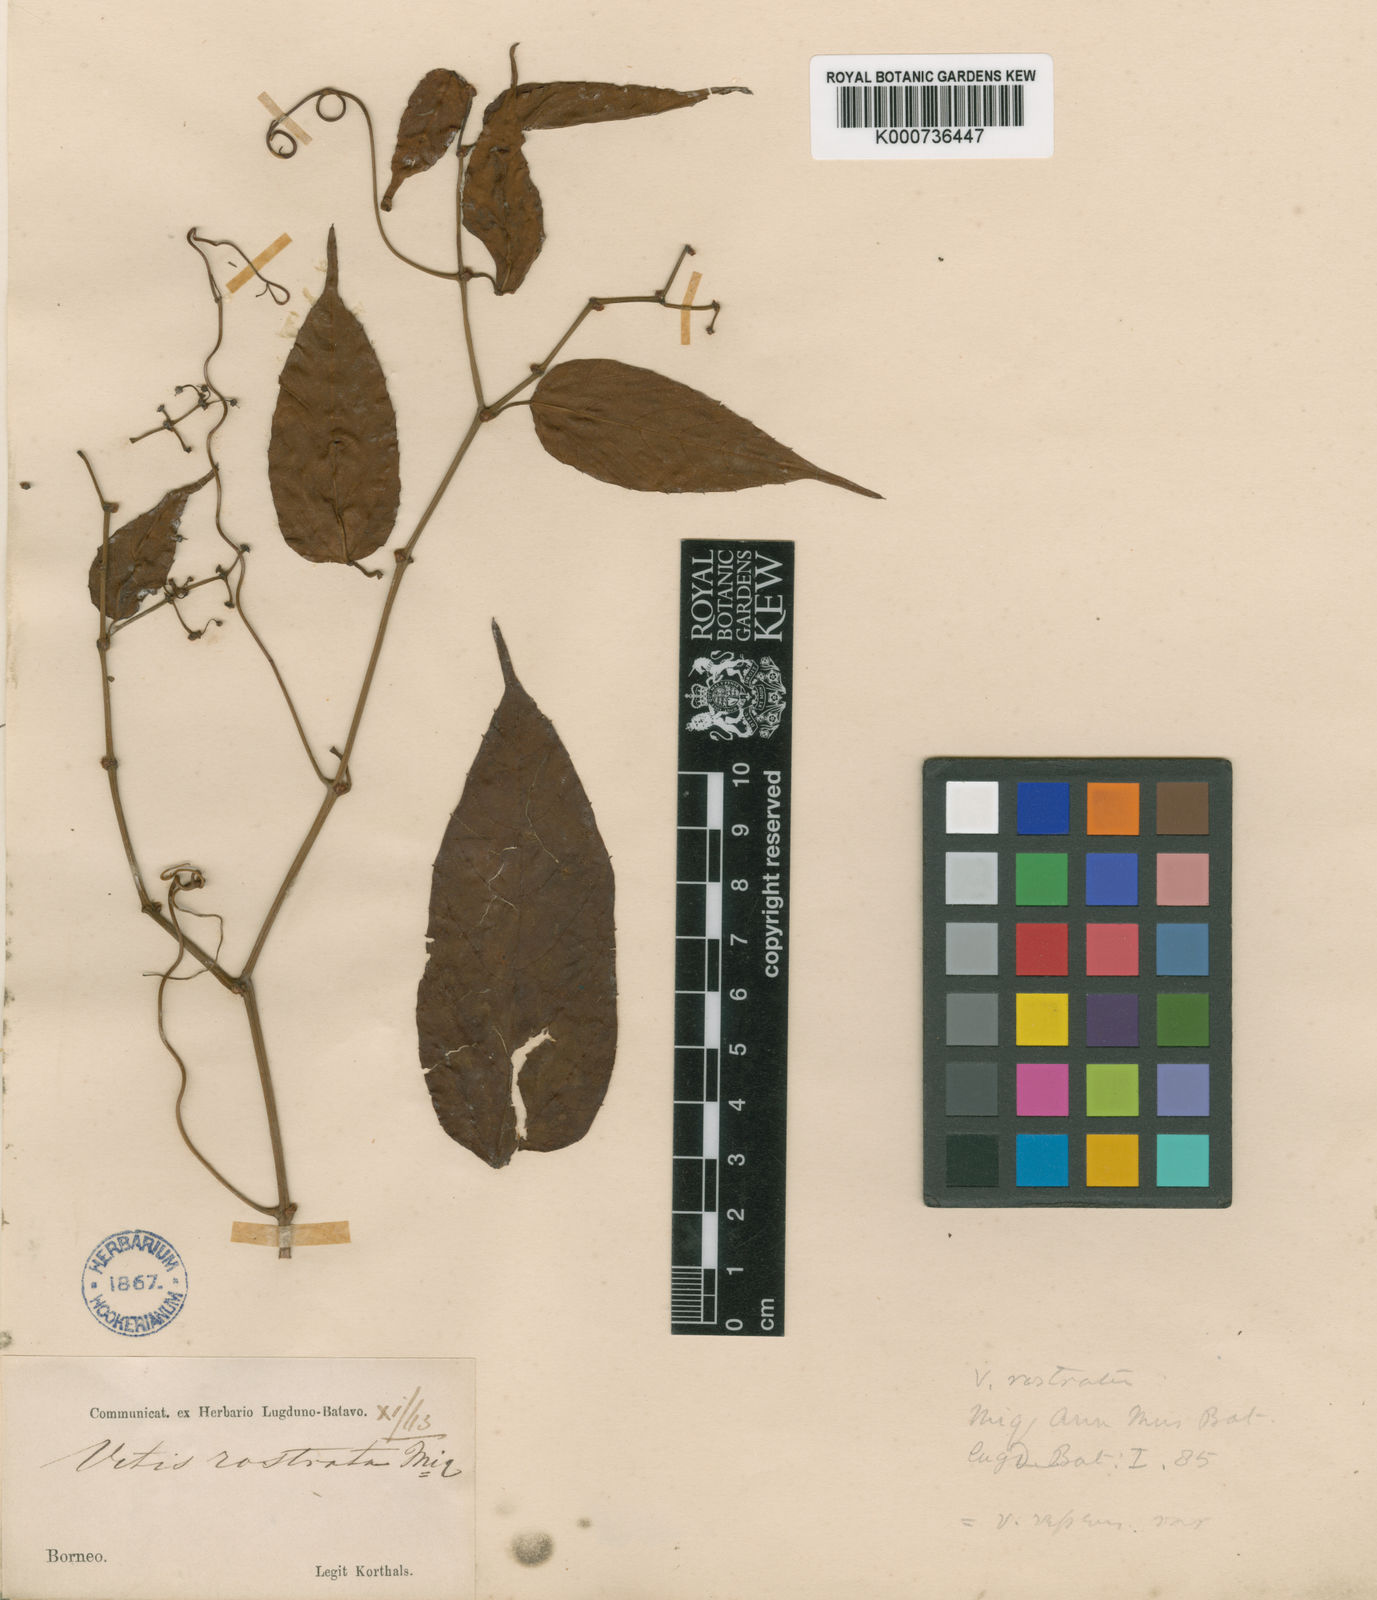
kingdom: Plantae
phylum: Tracheophyta
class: Magnoliopsida
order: Vitales
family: Vitaceae
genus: Cissus
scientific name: Cissus rostrata
